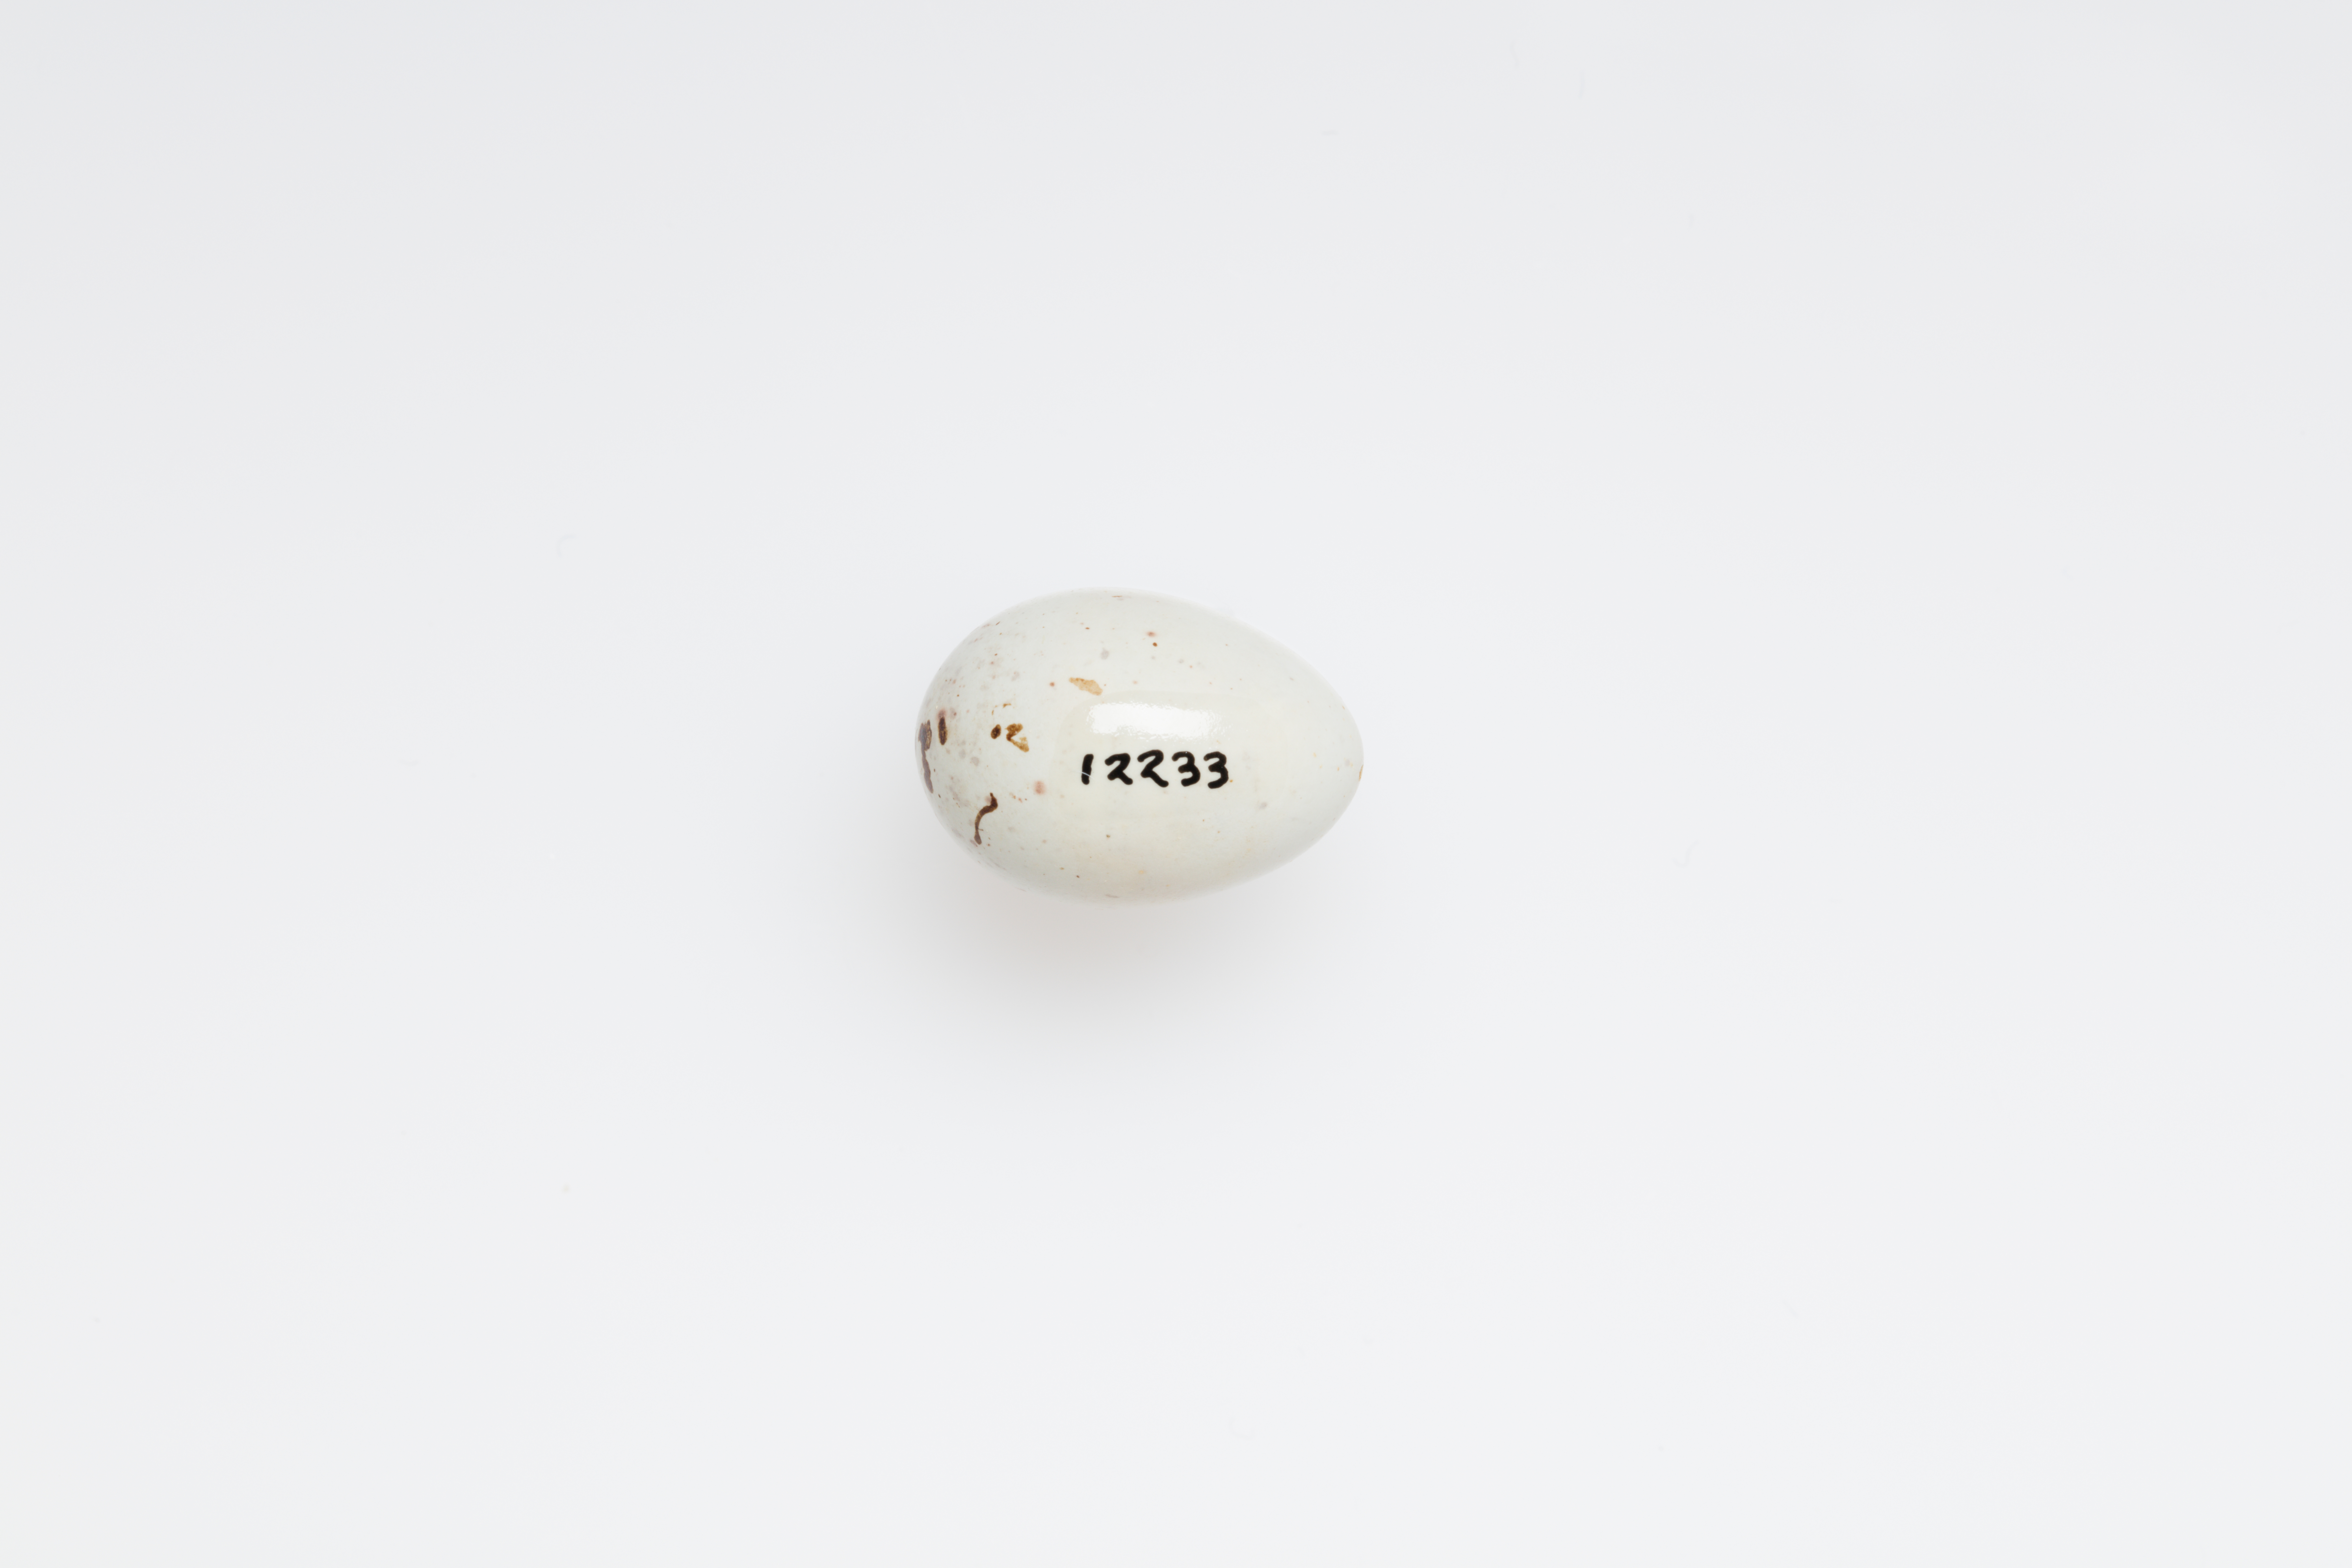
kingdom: Animalia
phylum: Chordata
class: Aves
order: Passeriformes
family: Fringillidae
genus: Linaria
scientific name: Linaria flavirostris
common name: Twite
